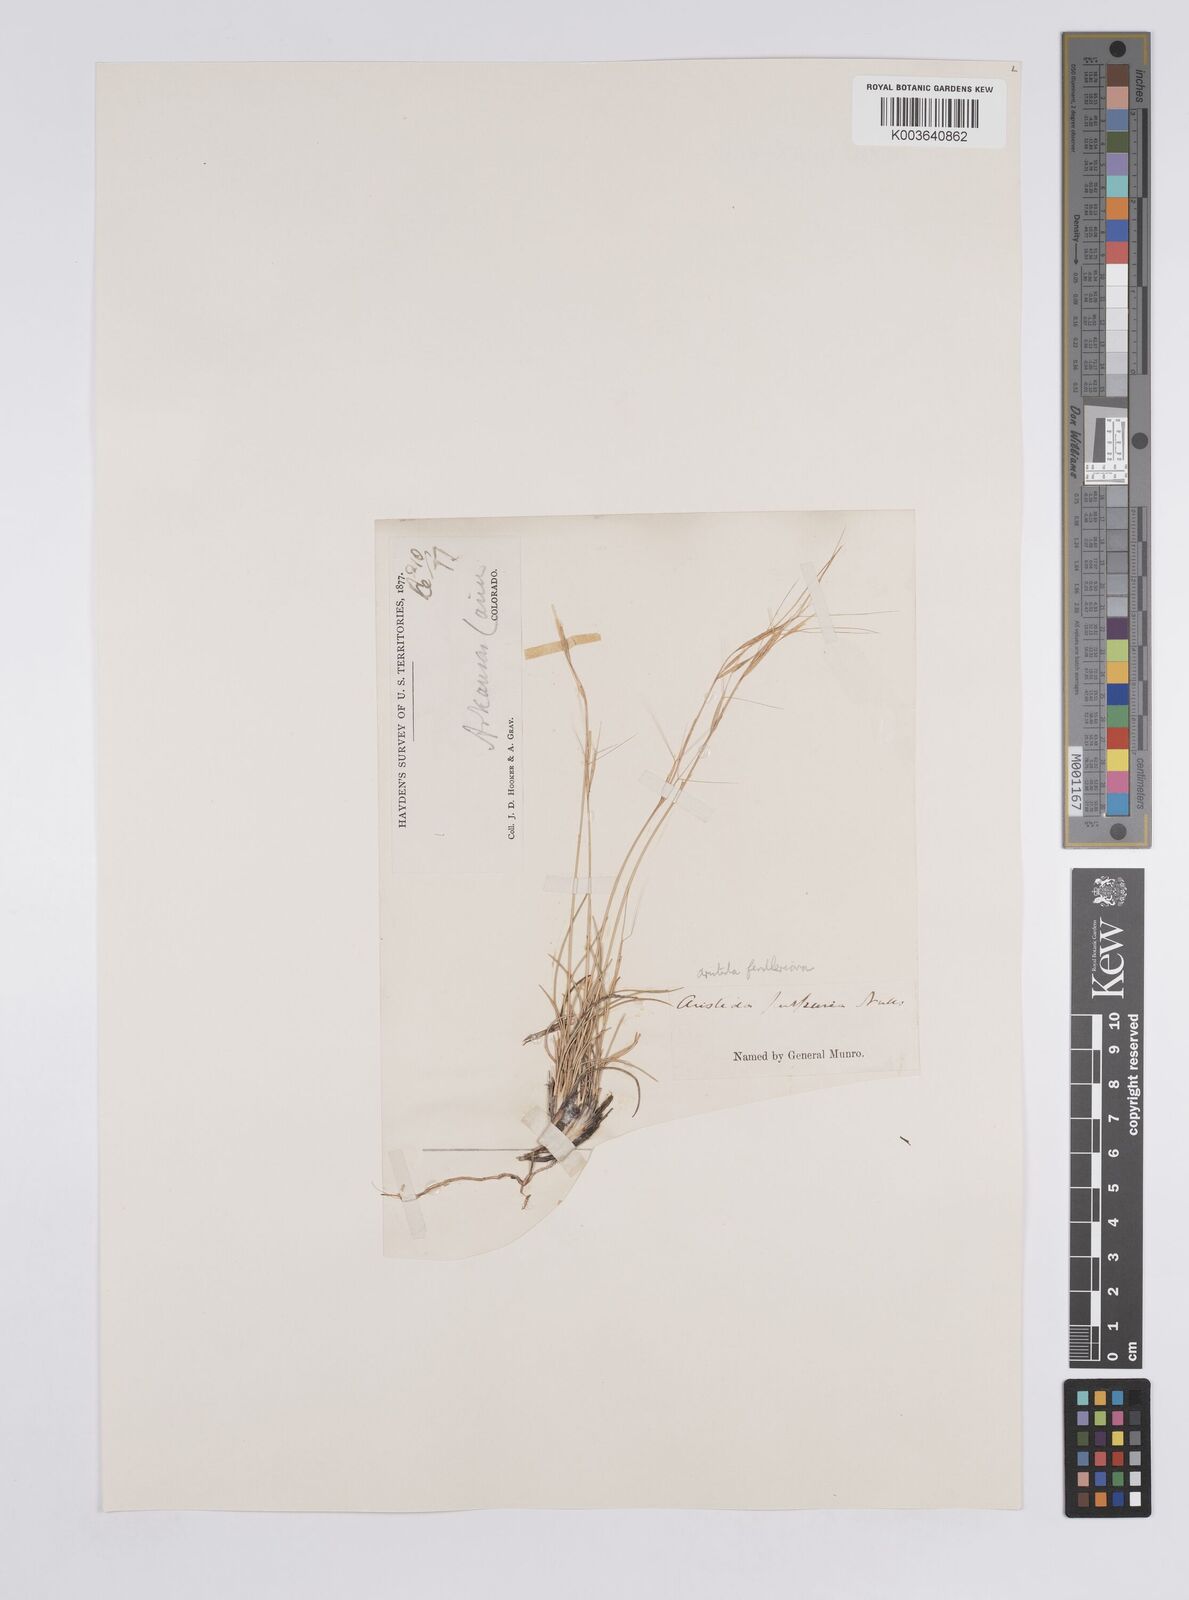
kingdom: Plantae
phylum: Tracheophyta
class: Liliopsida
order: Poales
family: Poaceae
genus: Aristida
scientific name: Aristida purpurea
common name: Purple threeawn
